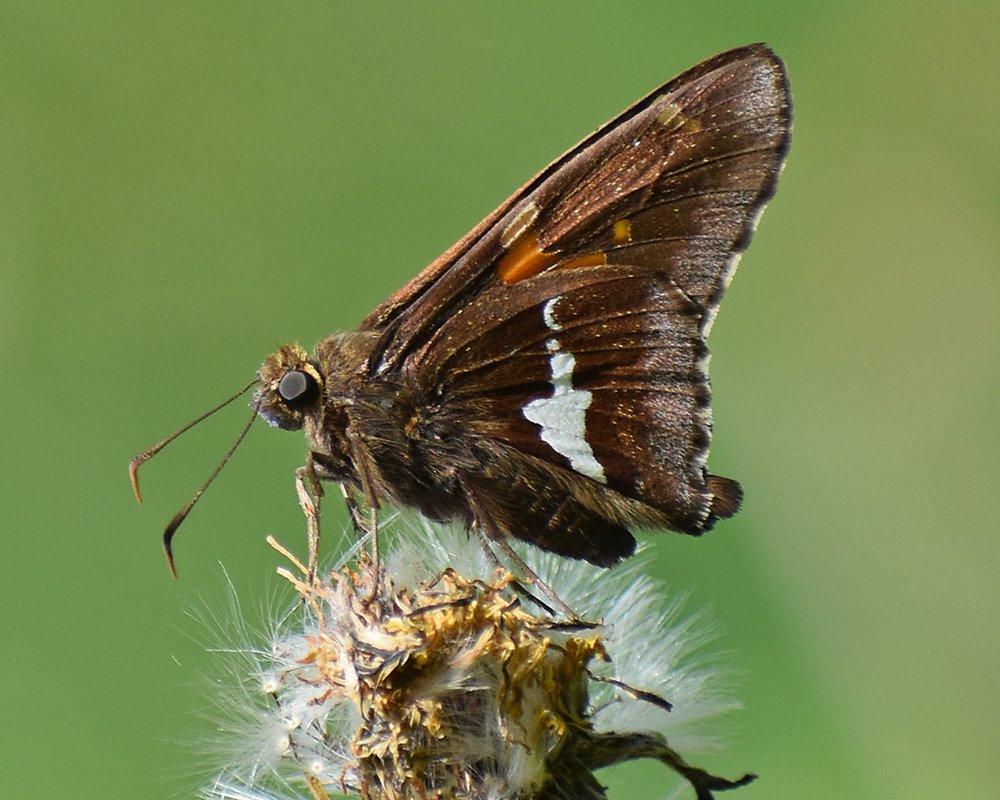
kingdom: Animalia
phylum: Arthropoda
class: Insecta
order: Lepidoptera
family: Hesperiidae
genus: Epargyreus
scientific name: Epargyreus clarus
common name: Silver-spotted Skipper
